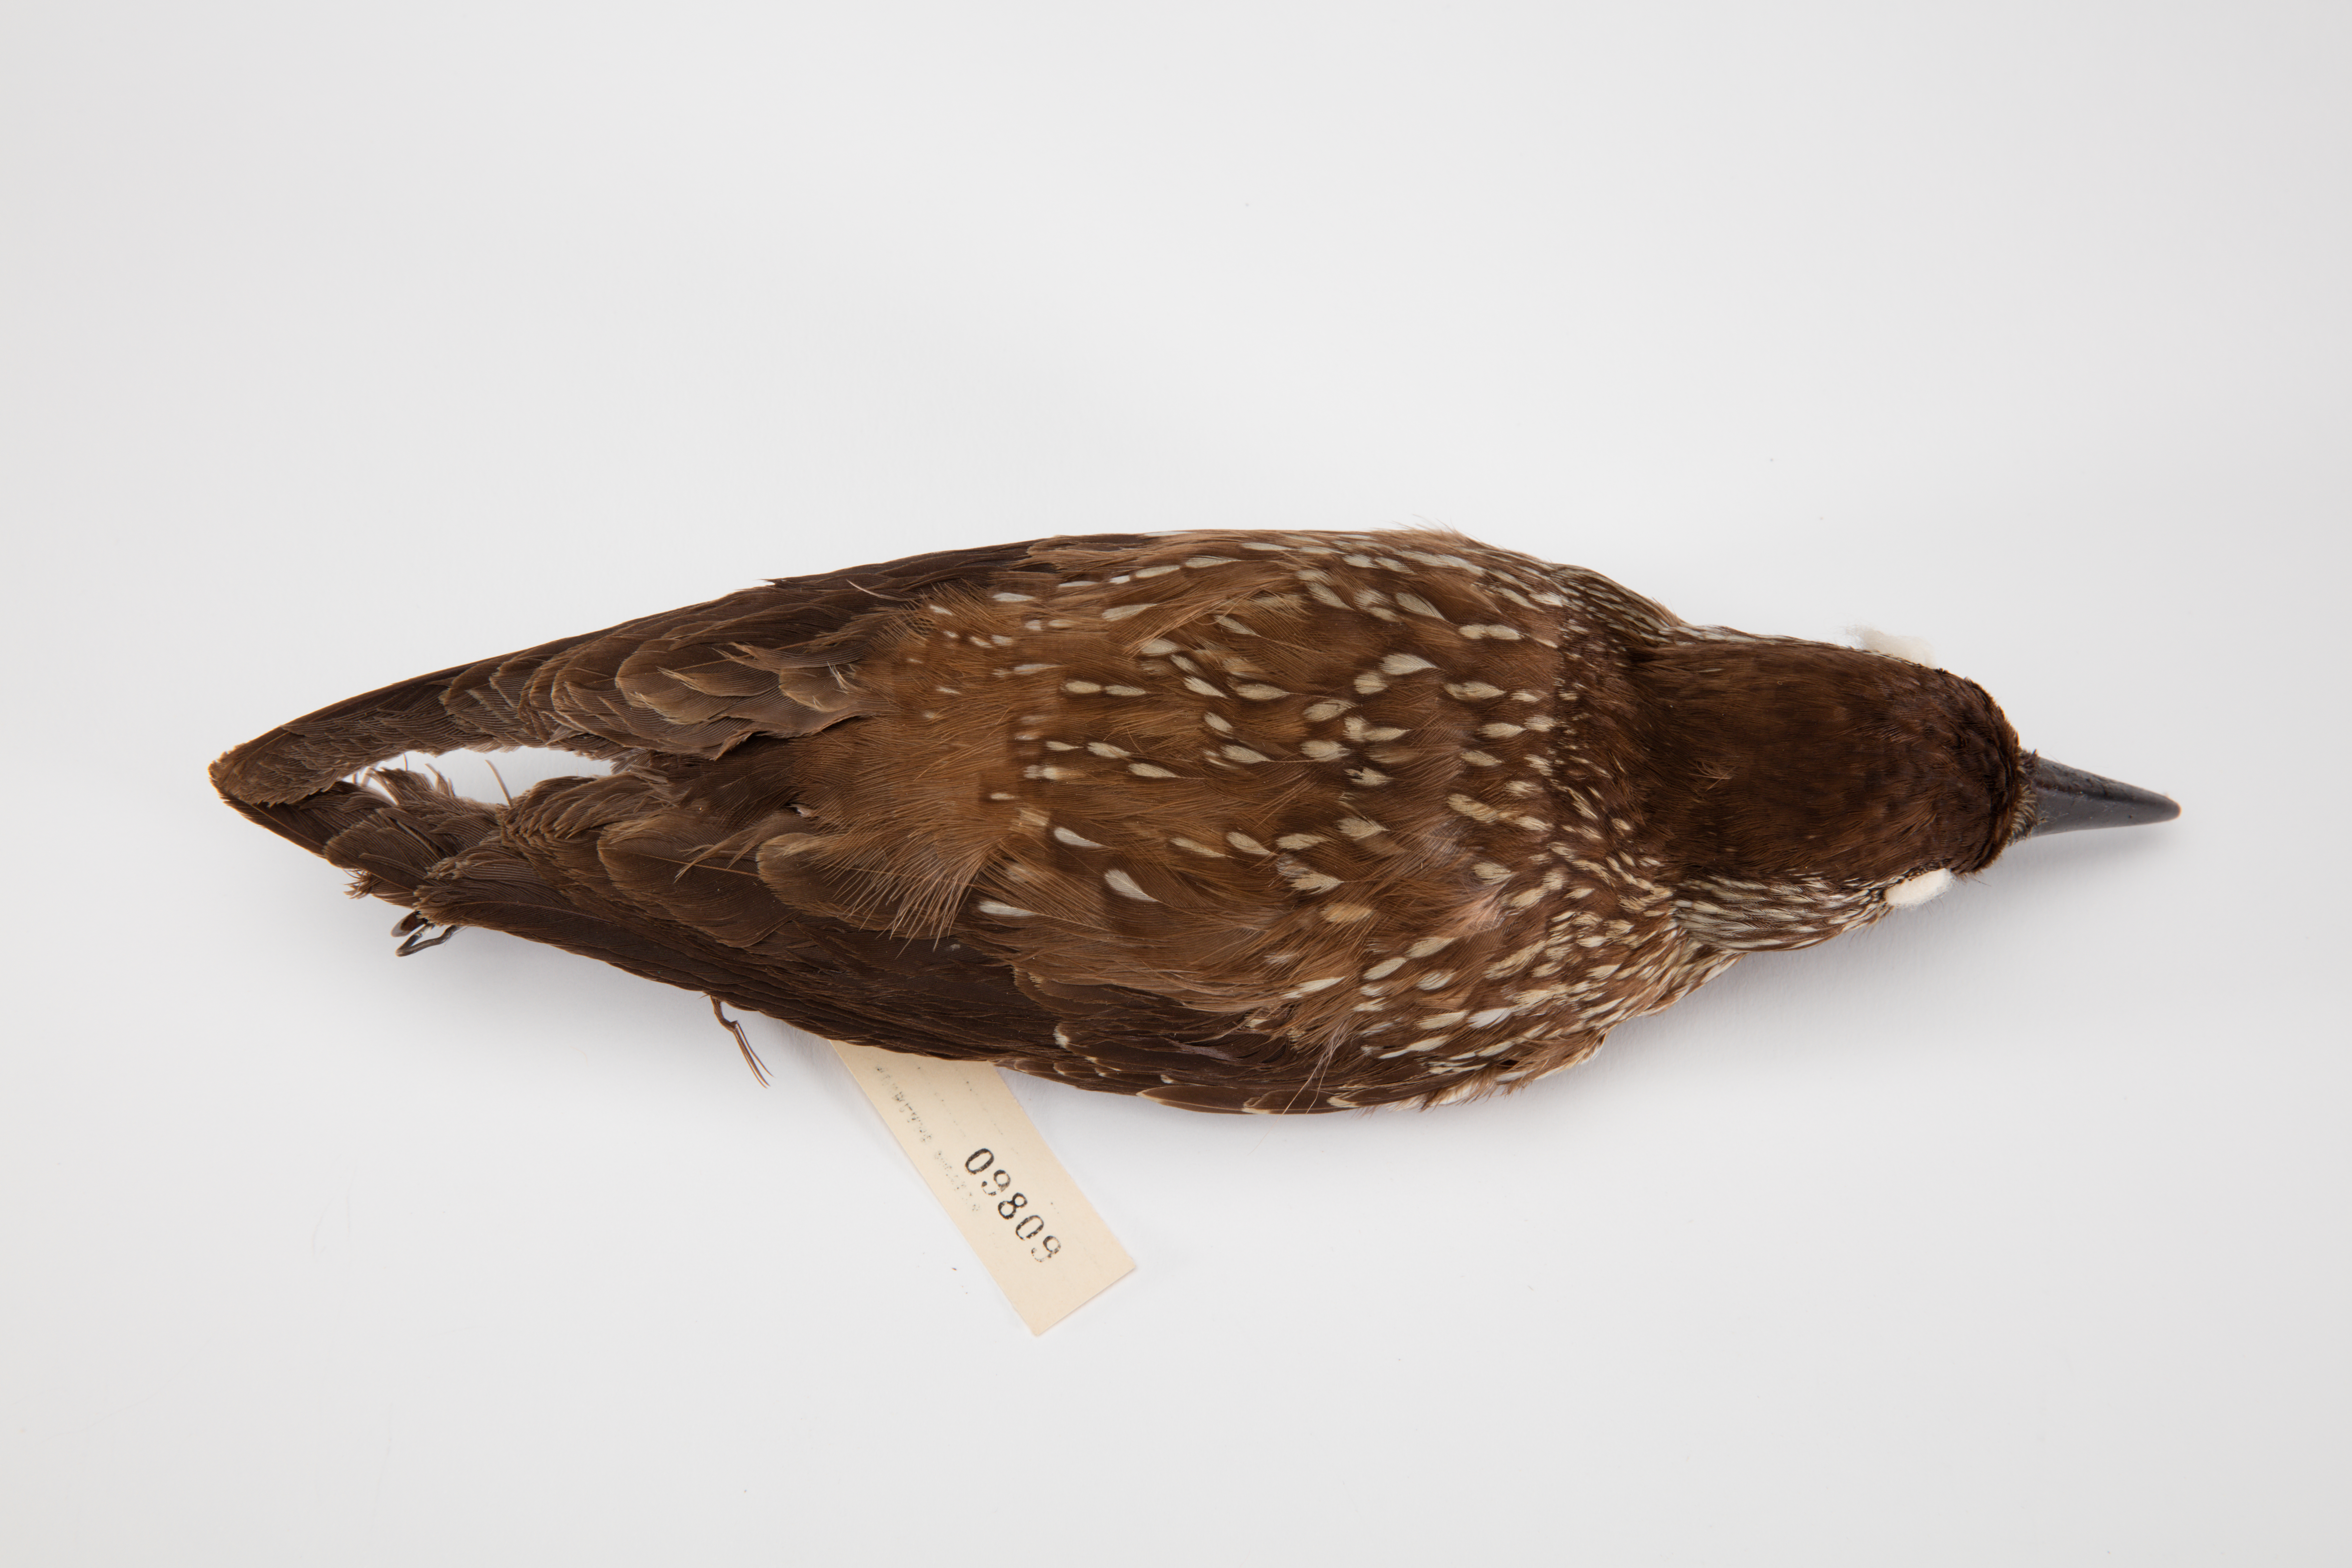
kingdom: Animalia
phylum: Chordata
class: Aves
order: Passeriformes
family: Corvidae
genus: Nucifraga
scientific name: Nucifraga caryocatactes
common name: Spotted nutcracker
